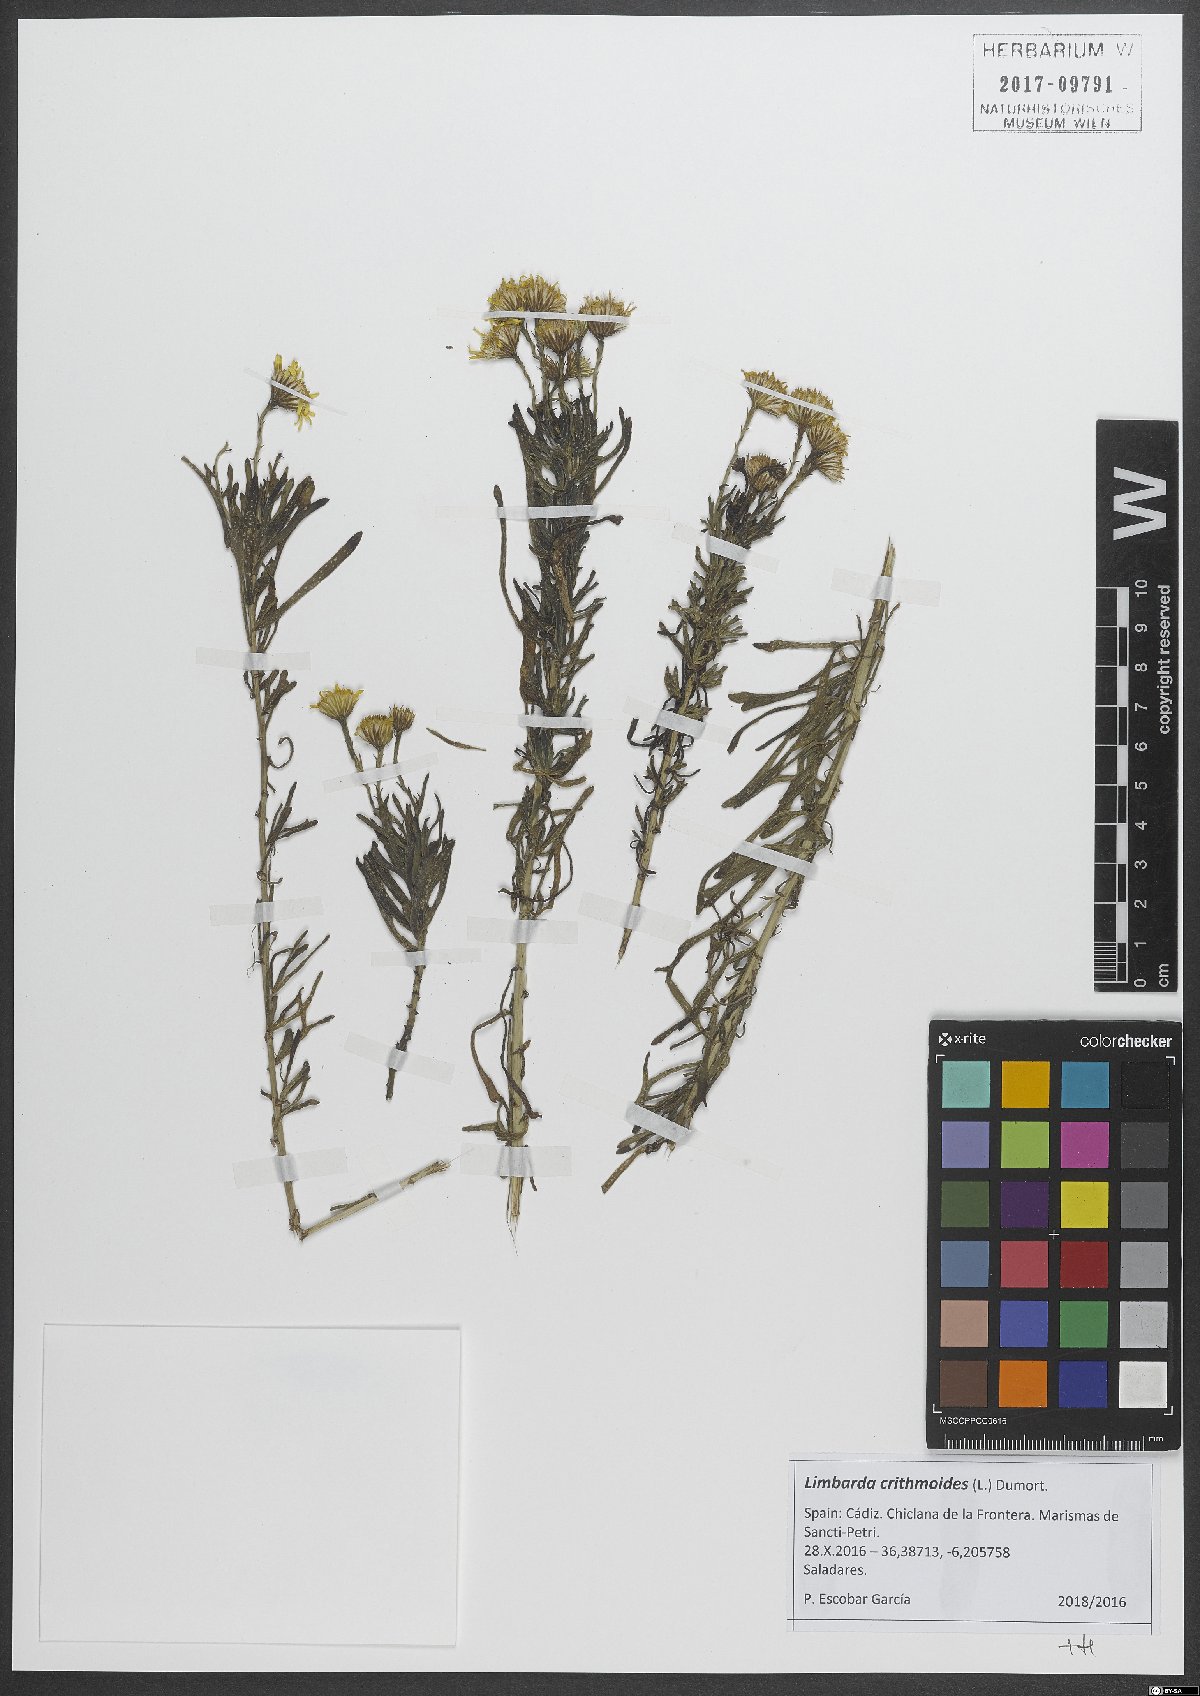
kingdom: Plantae
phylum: Tracheophyta
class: Magnoliopsida
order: Asterales
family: Asteraceae
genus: Limbarda
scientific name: Limbarda crithmoides
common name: Golden samphire
